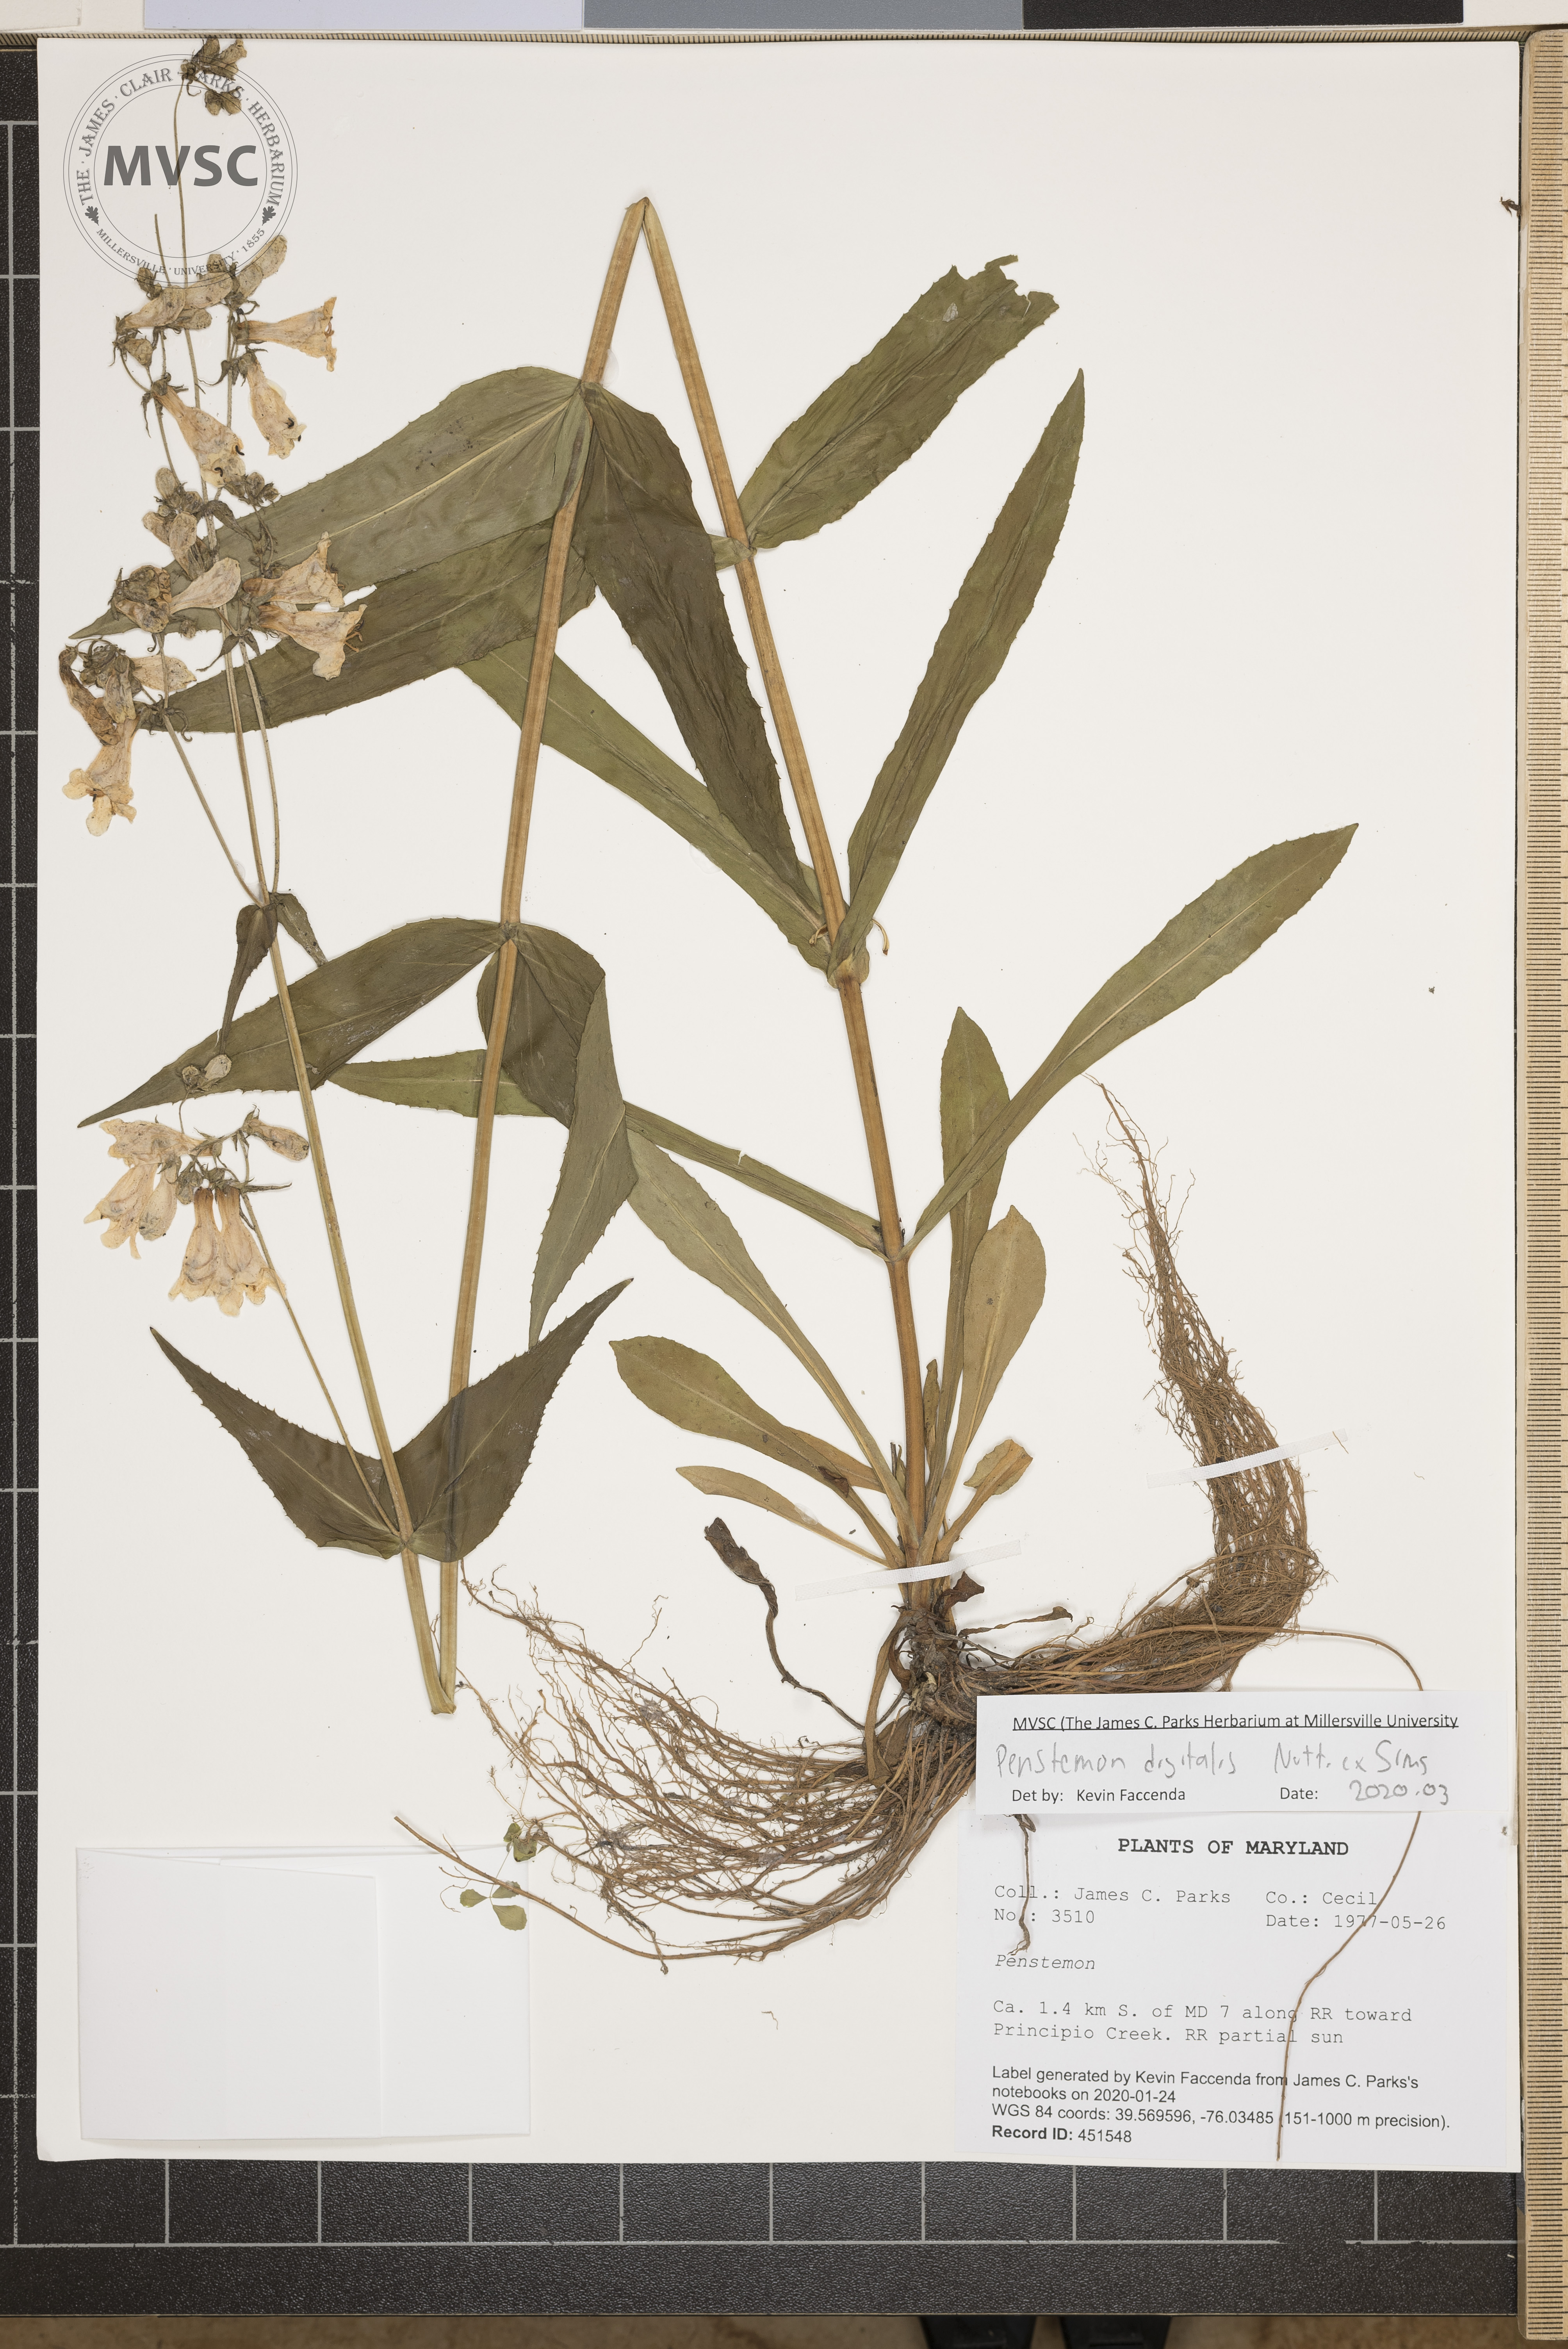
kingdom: Plantae
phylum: Tracheophyta
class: Magnoliopsida
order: Lamiales
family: Plantaginaceae
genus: Penstemon
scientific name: Penstemon digitalis
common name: Foxglove beardtongue
